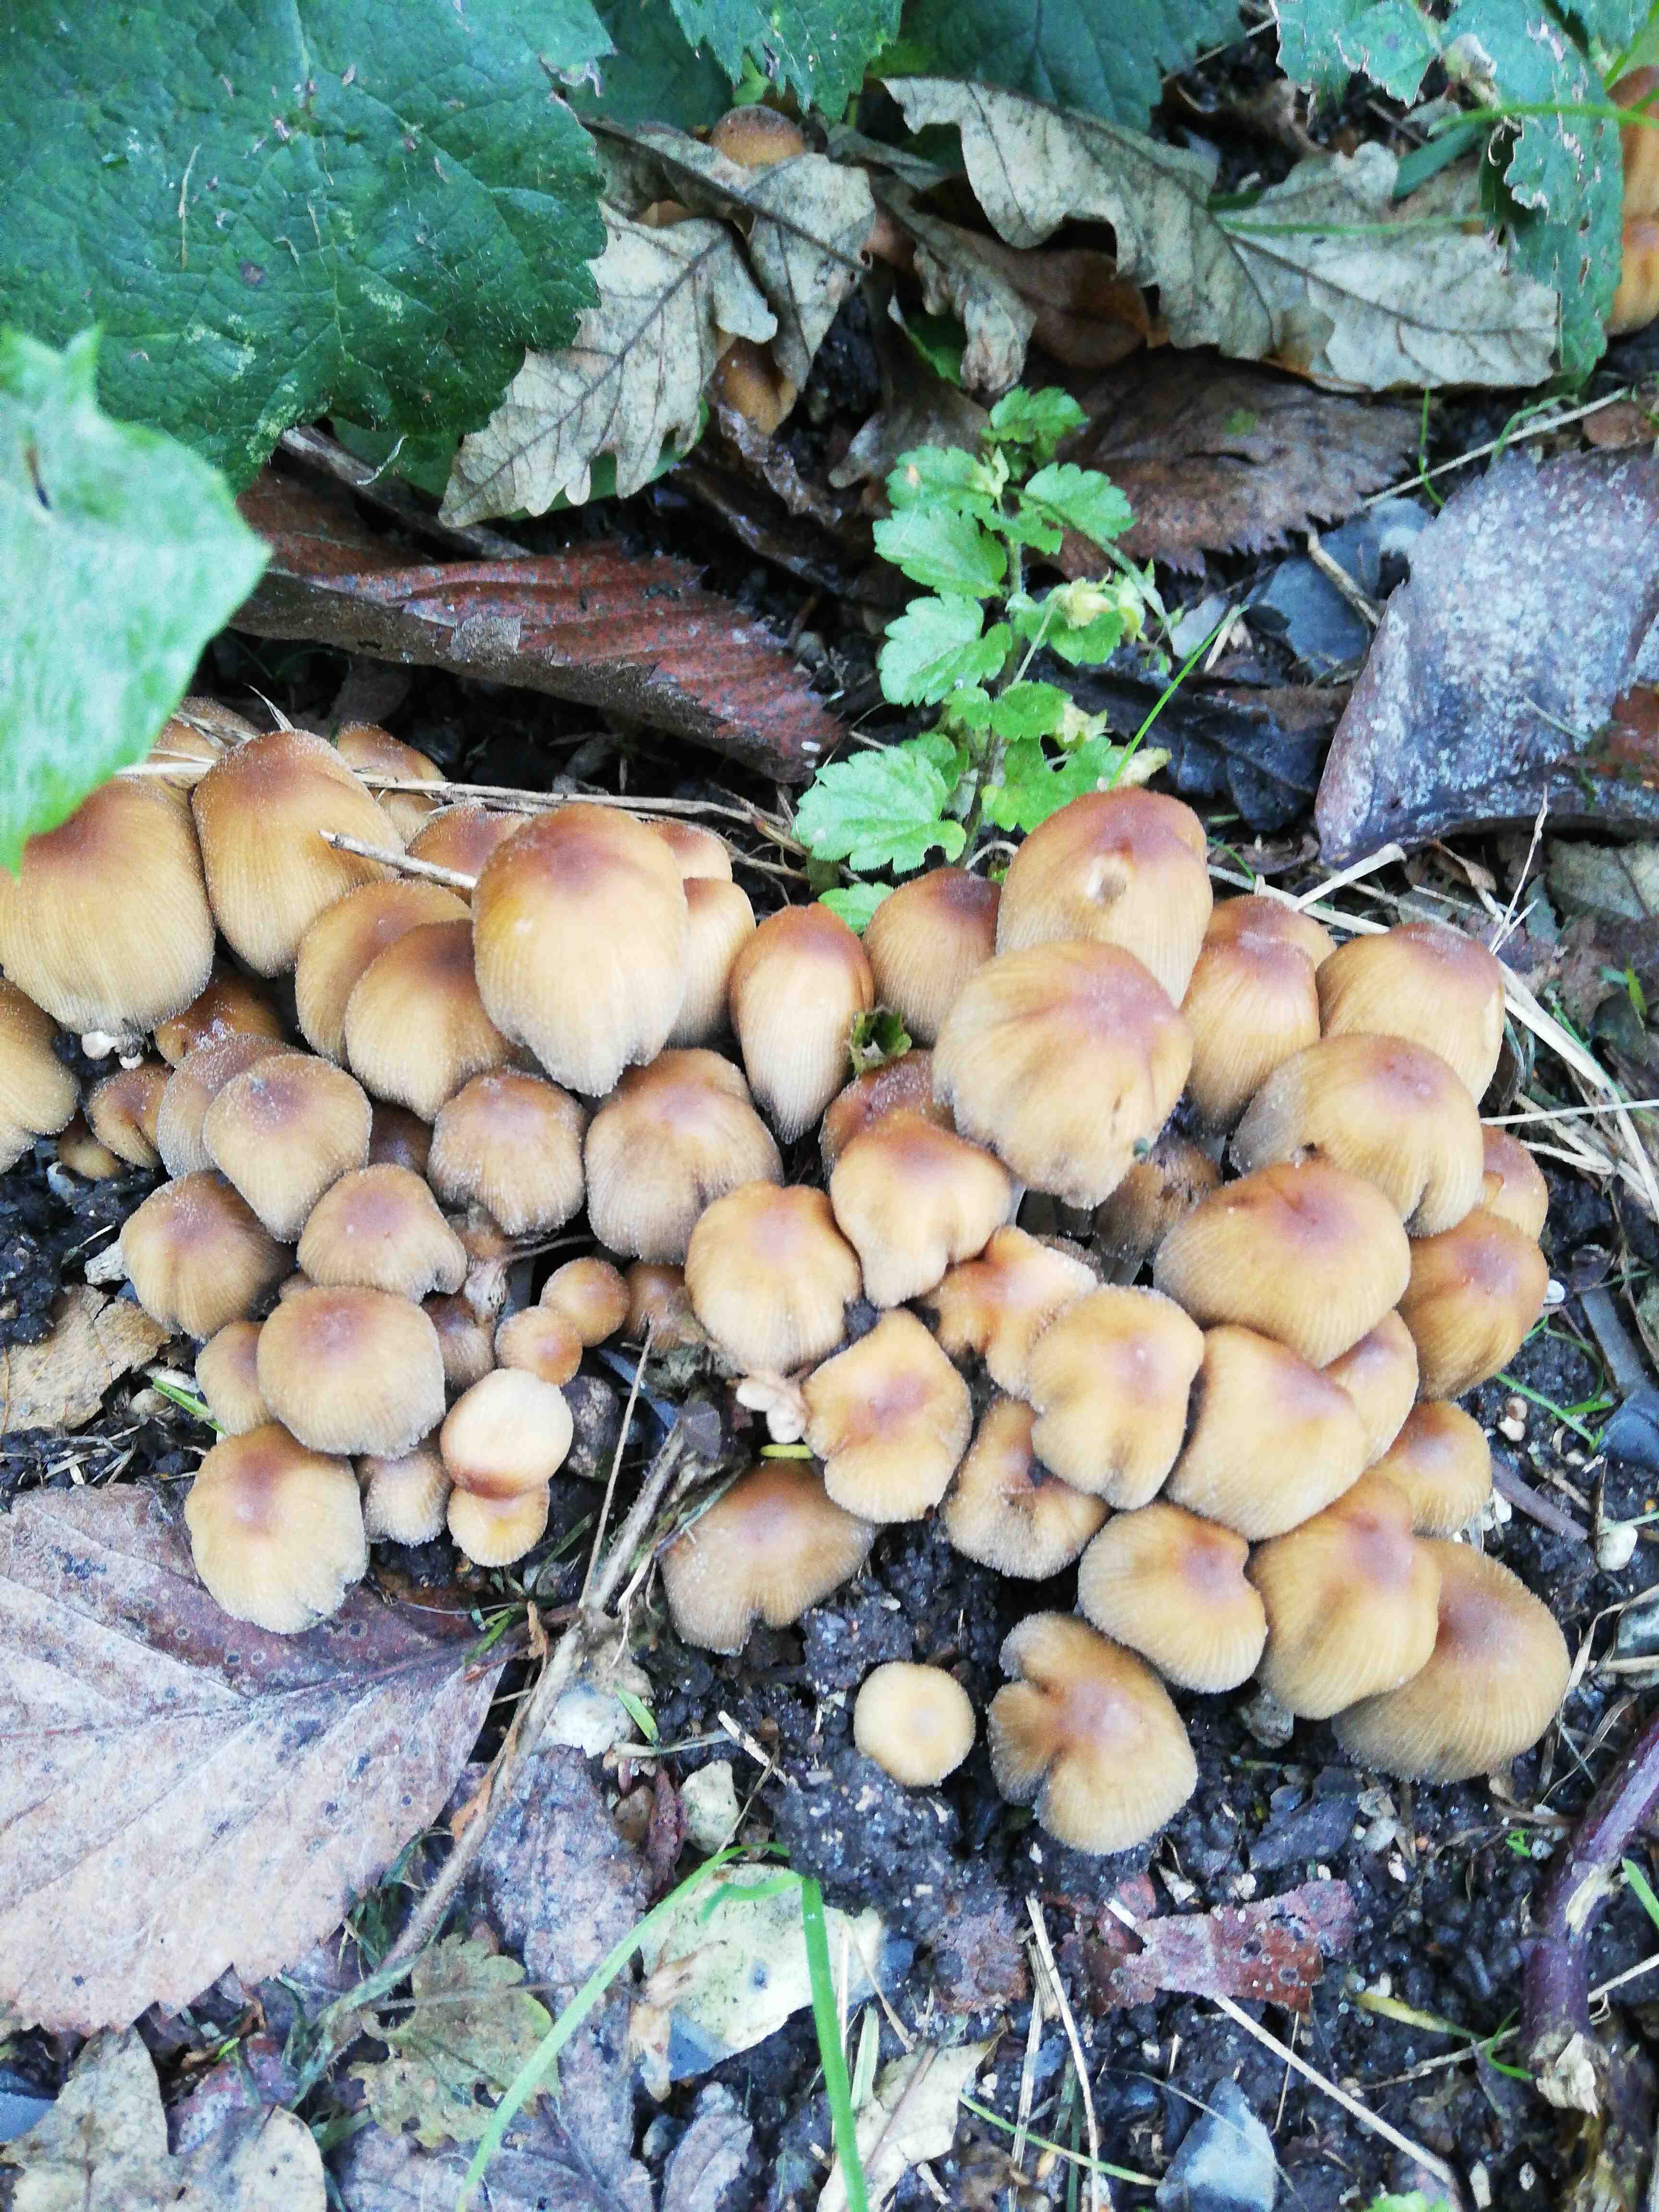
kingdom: Fungi
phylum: Basidiomycota
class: Agaricomycetes
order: Agaricales
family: Psathyrellaceae
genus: Coprinellus
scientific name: Coprinellus micaceus
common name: glimmer-blækhat
